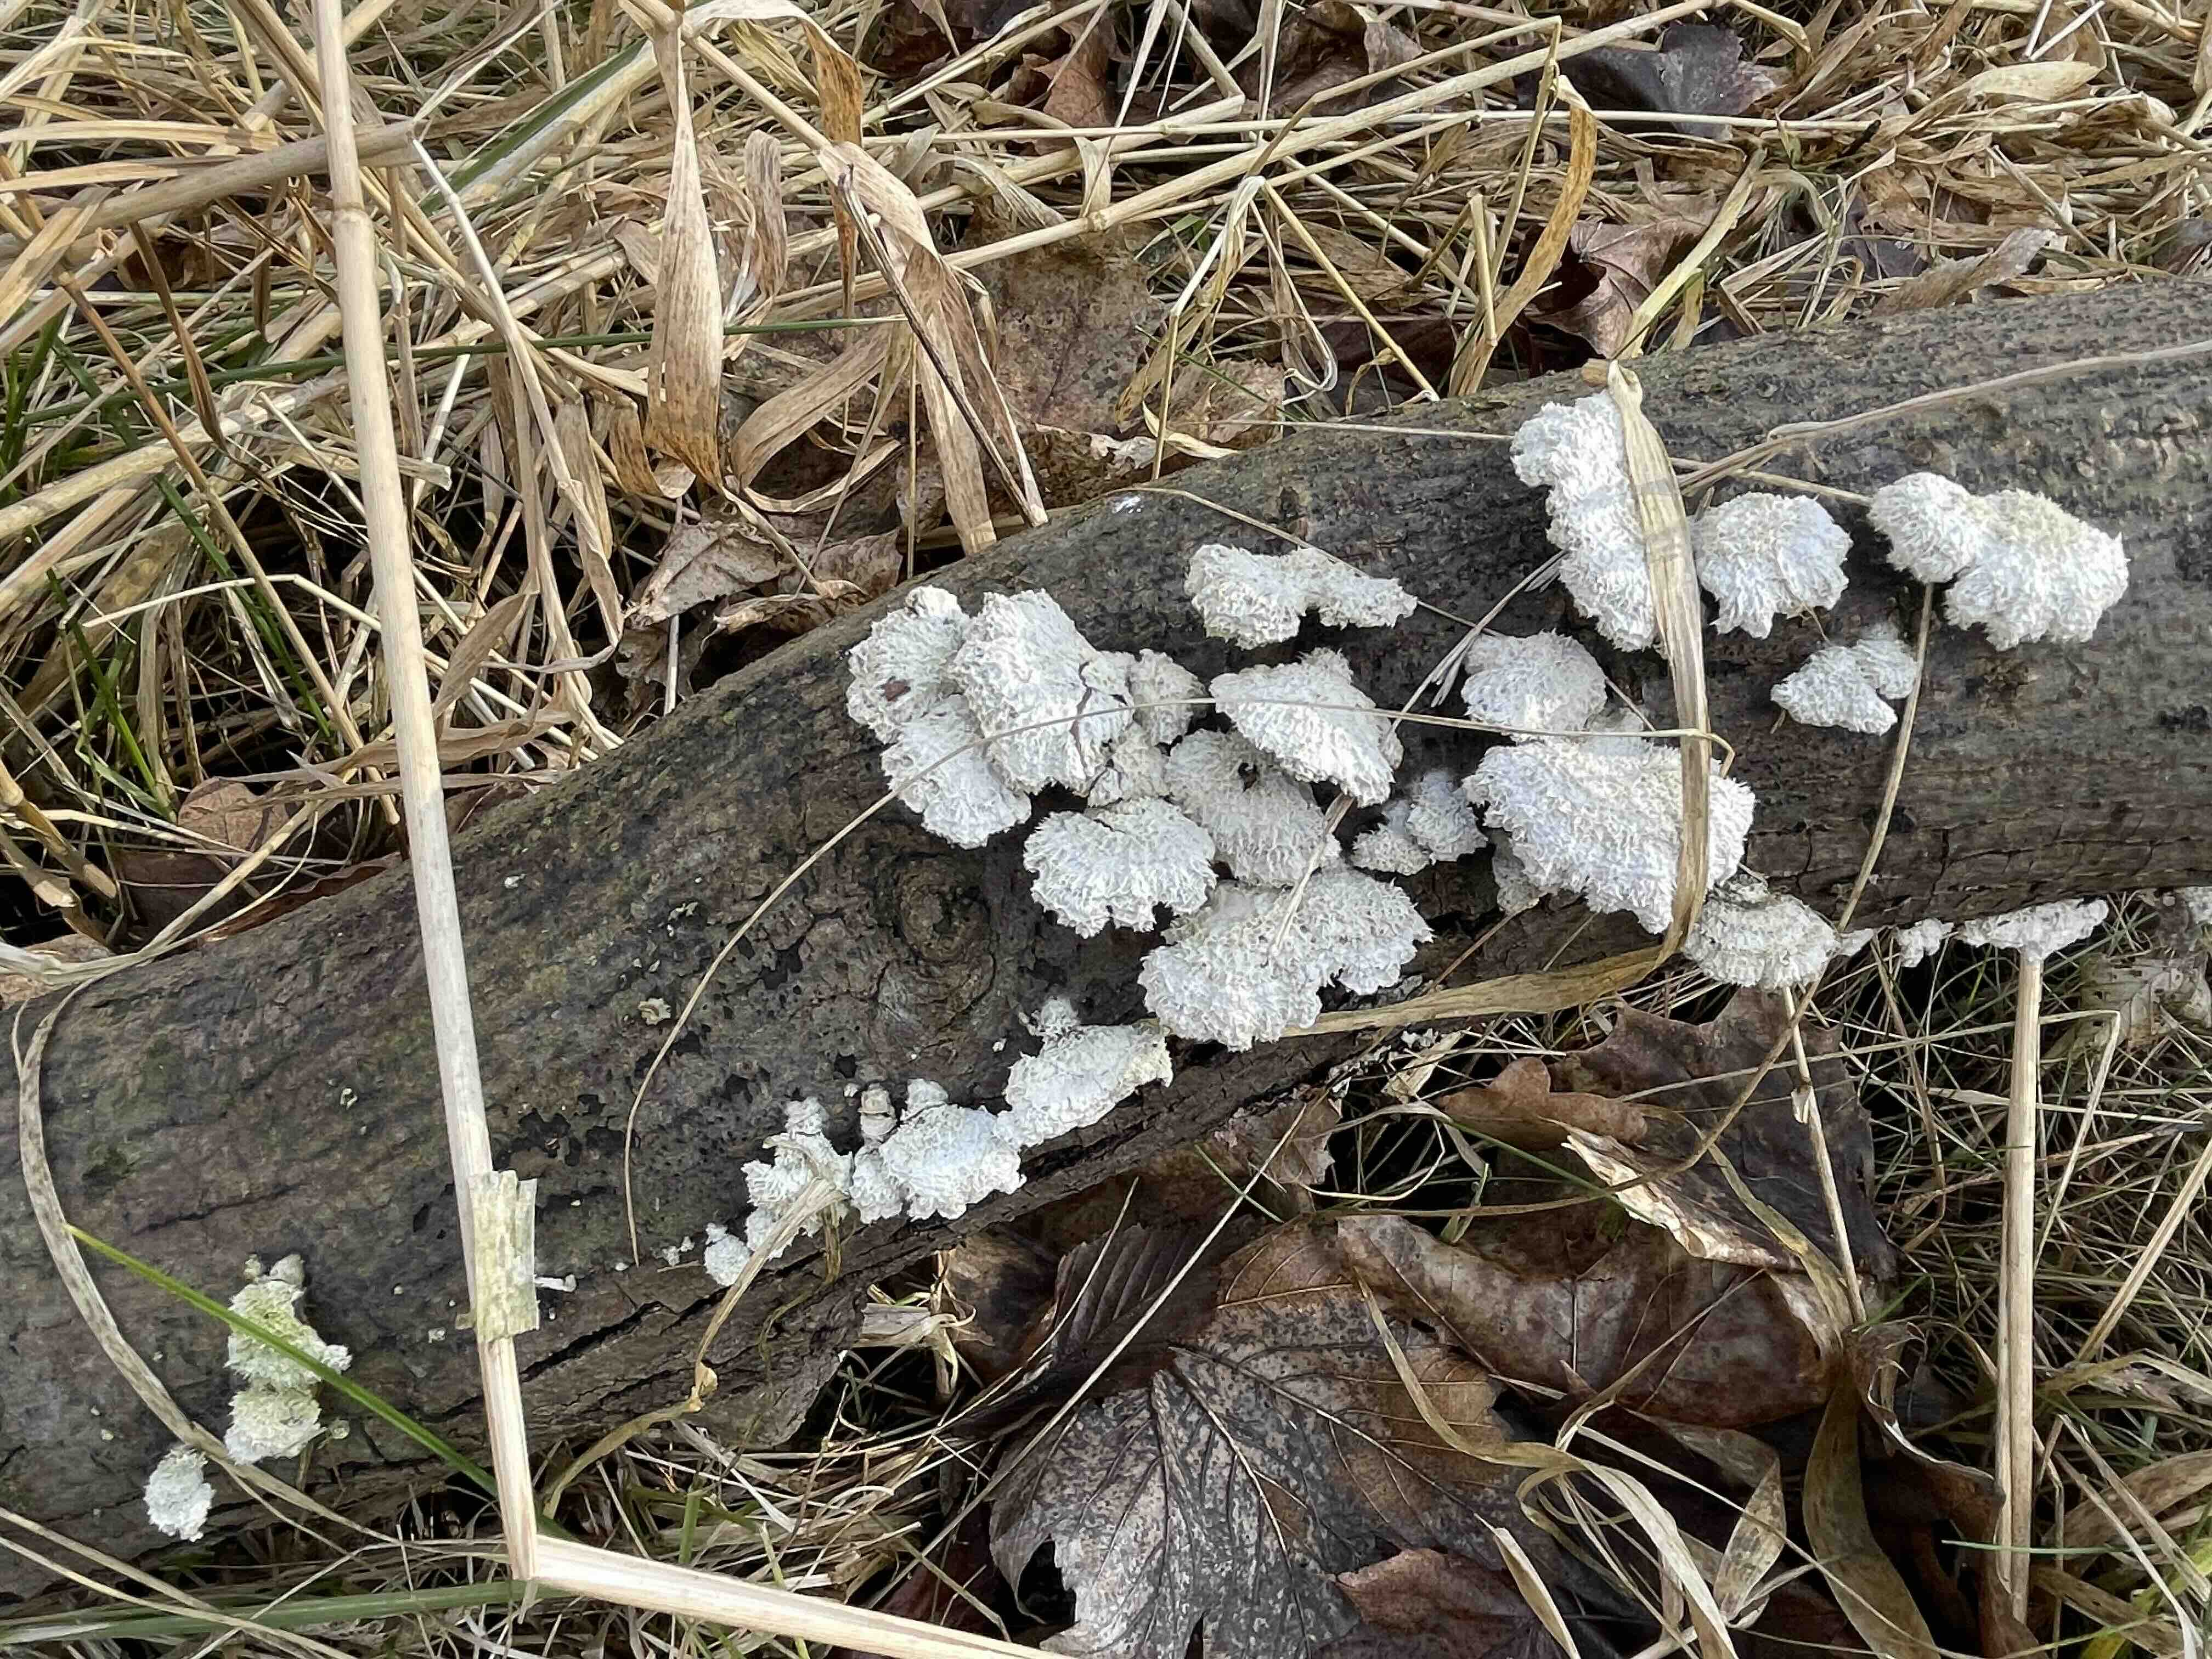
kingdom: Fungi
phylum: Basidiomycota
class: Agaricomycetes
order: Agaricales
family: Schizophyllaceae
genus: Schizophyllum
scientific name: Schizophyllum commune
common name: kløvblad
